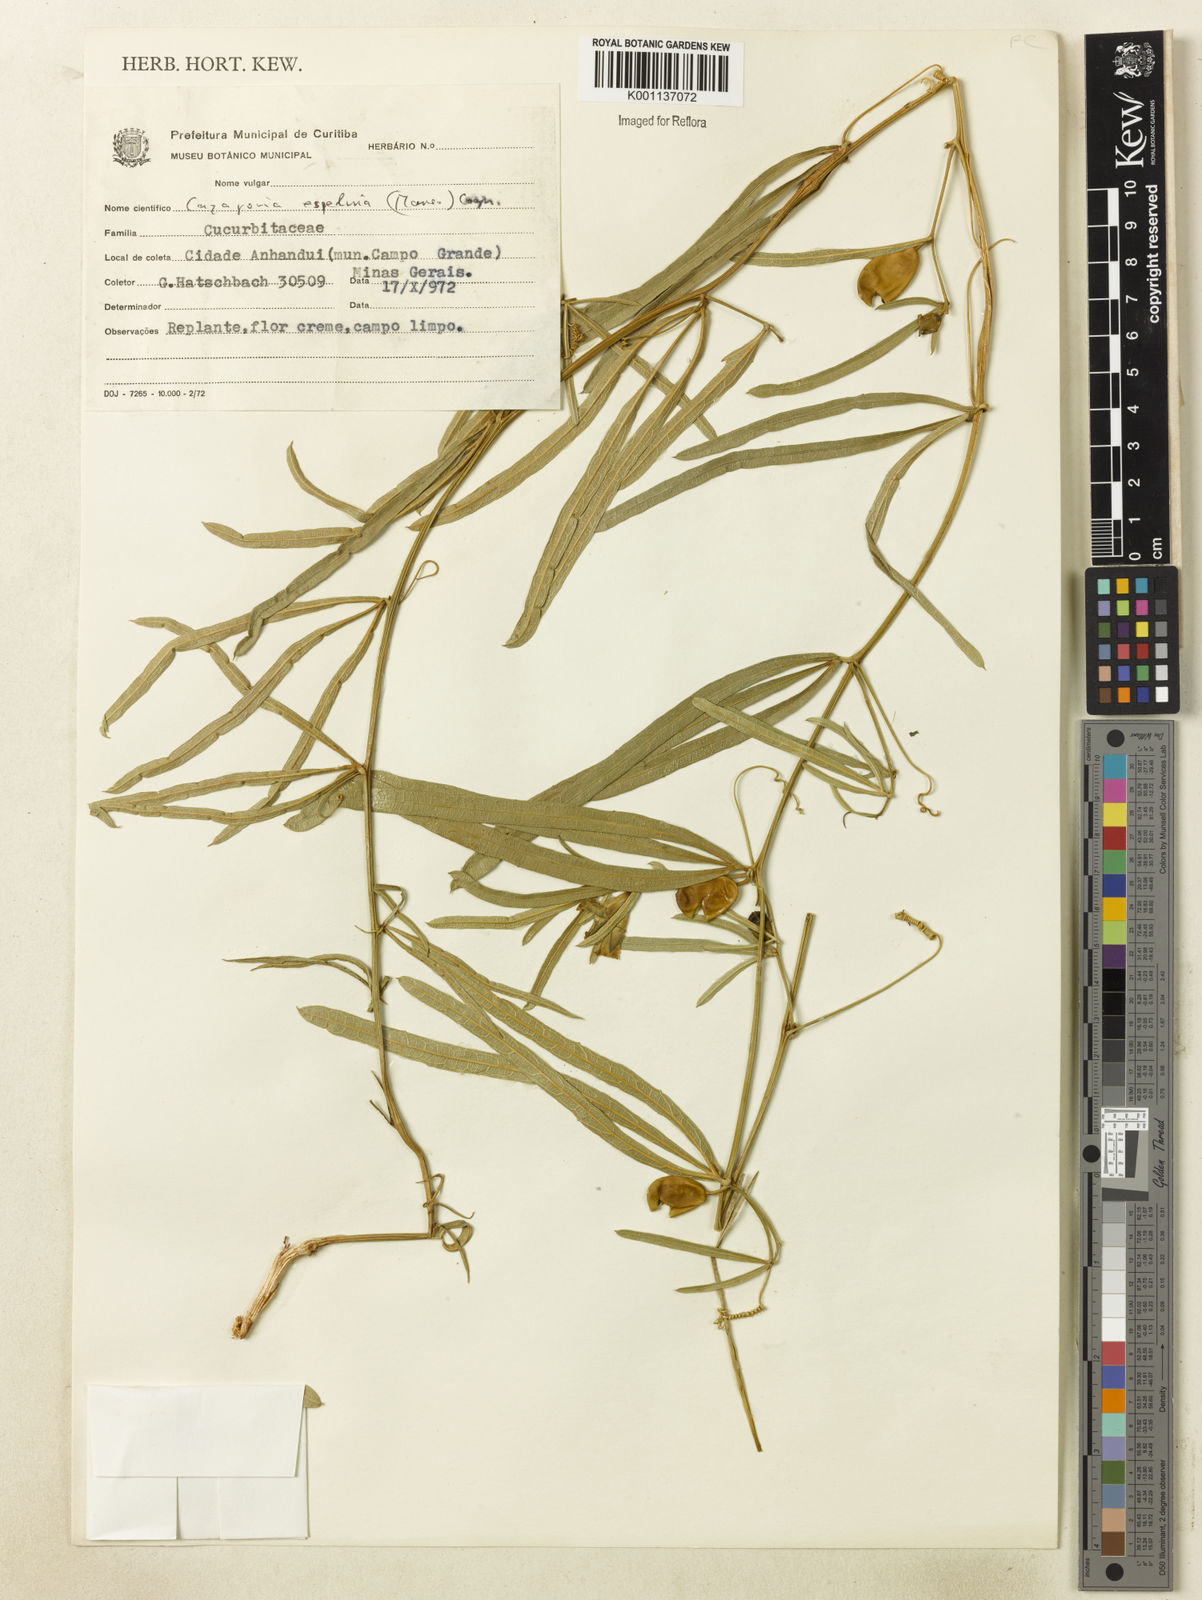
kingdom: Plantae
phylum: Tracheophyta
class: Magnoliopsida
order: Cucurbitales
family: Cucurbitaceae
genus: Cayaponia
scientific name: Cayaponia espelina
